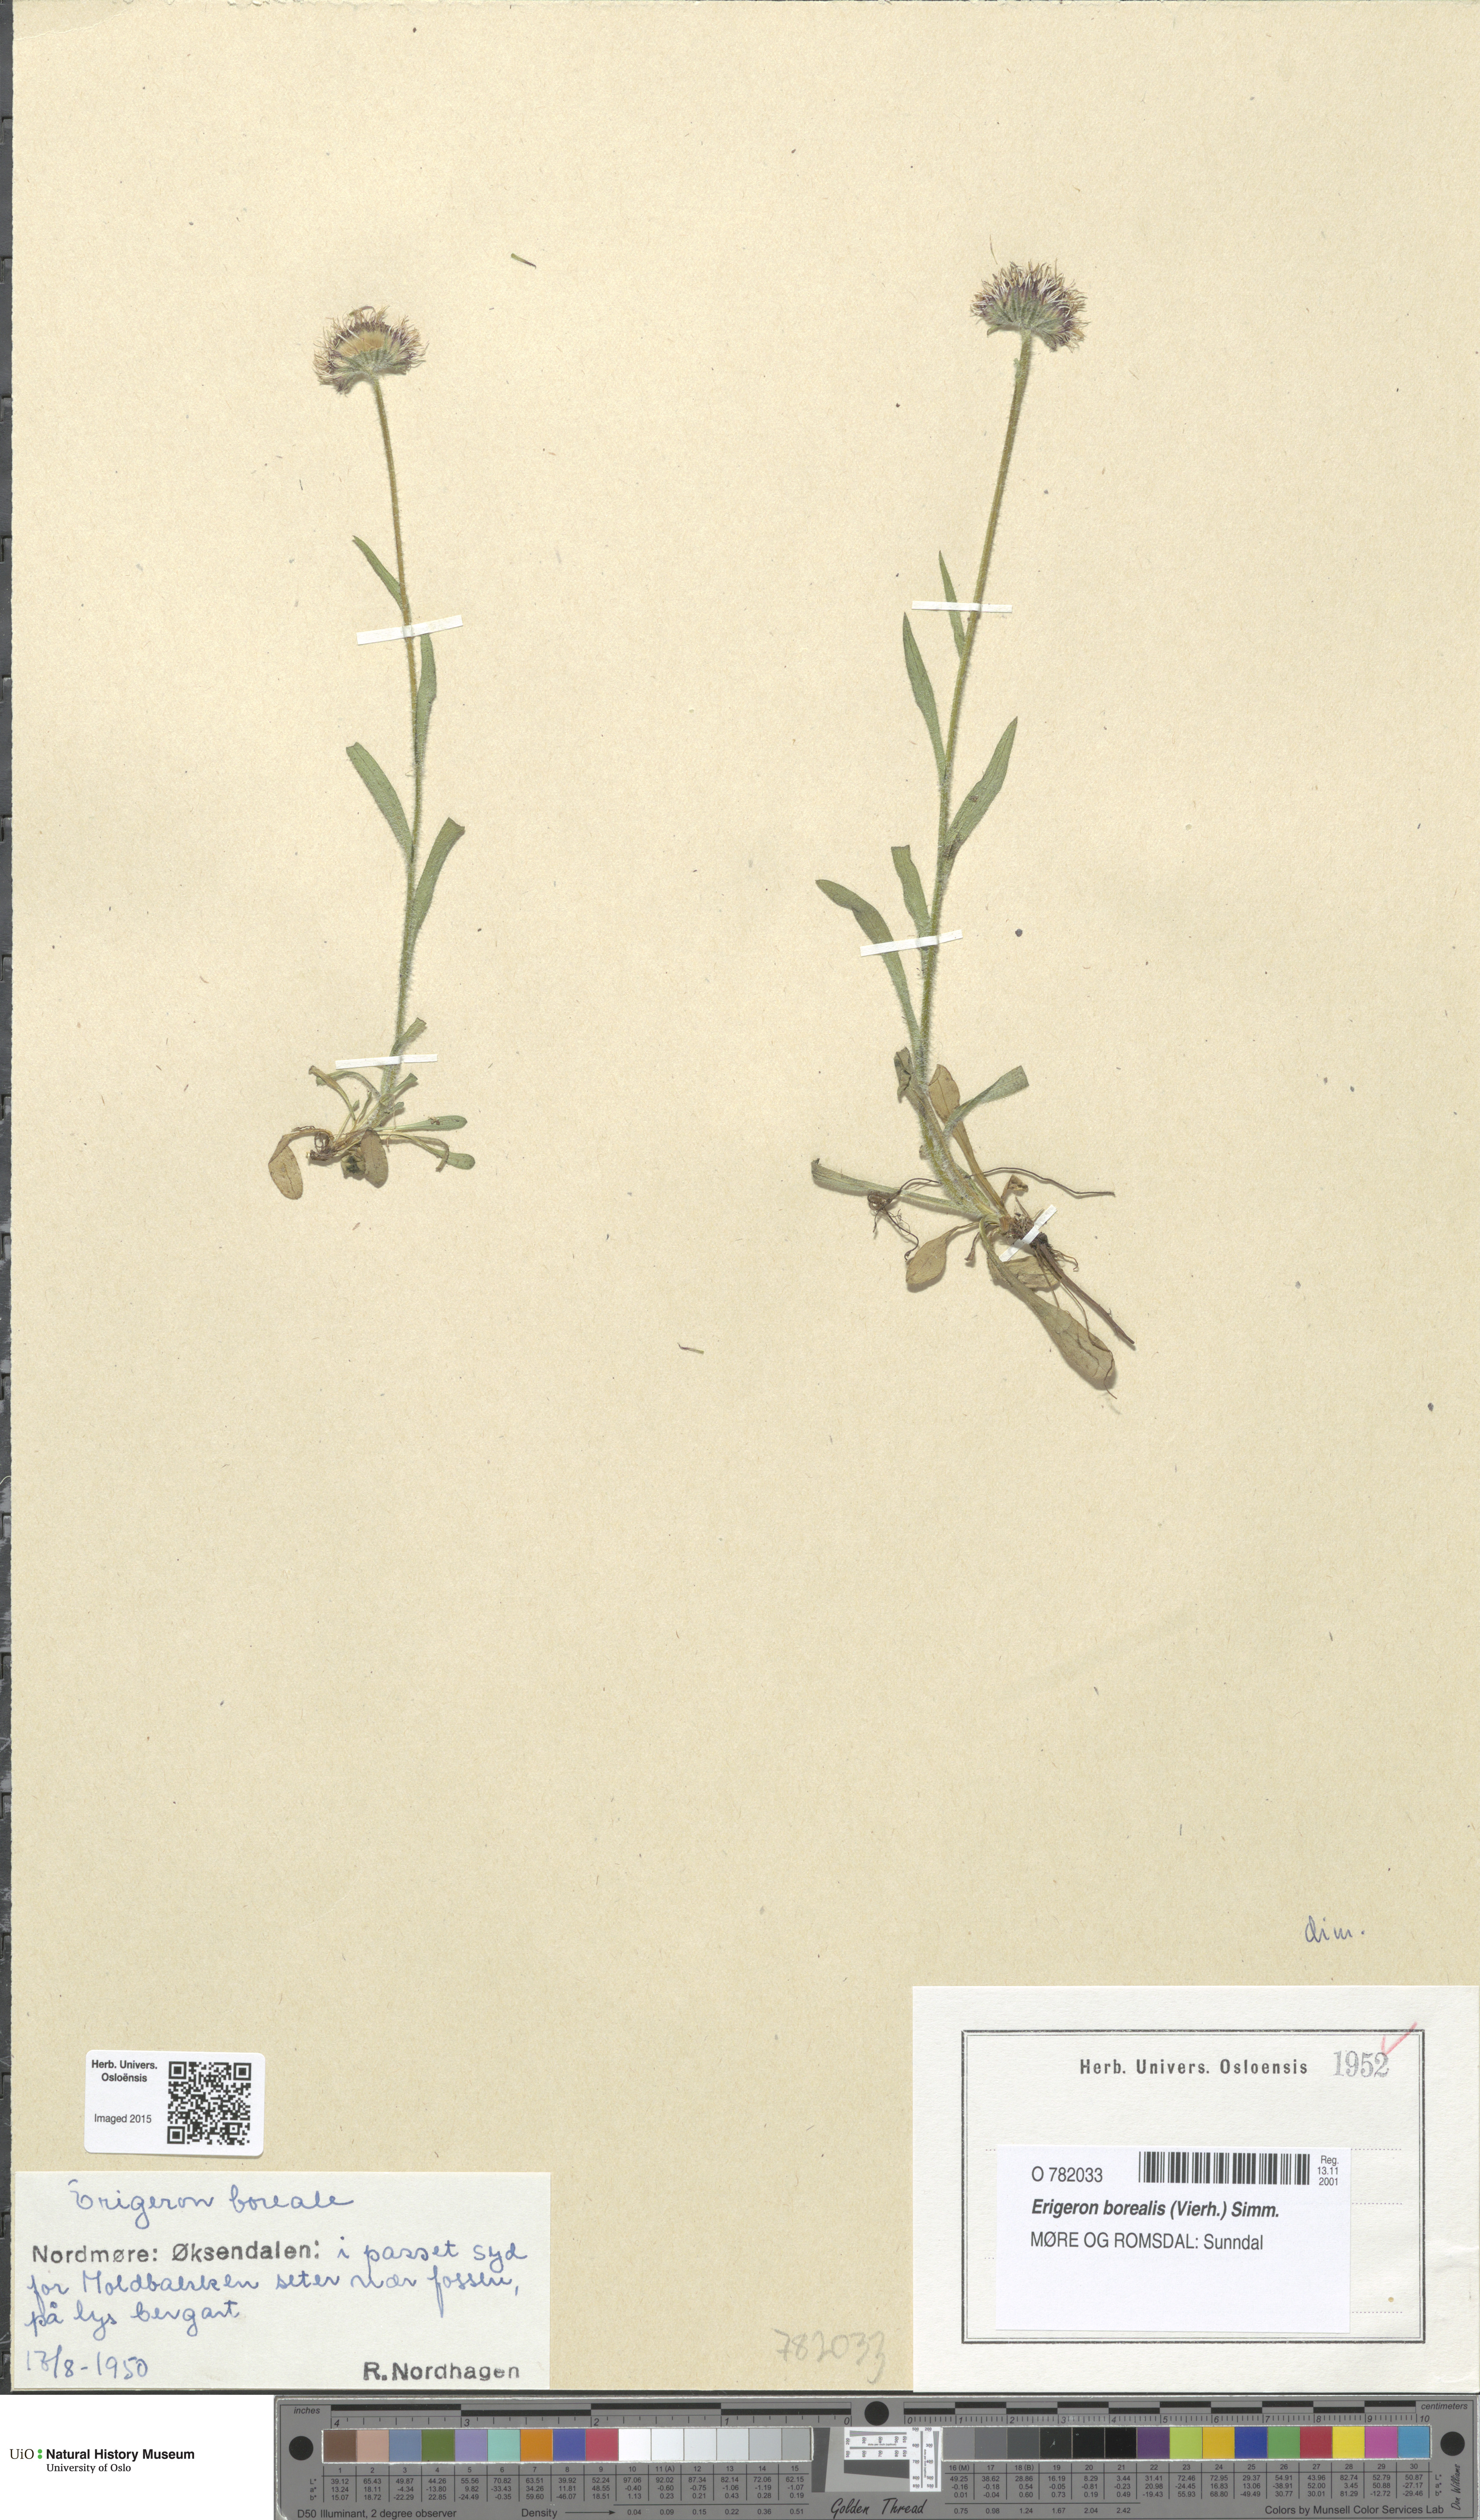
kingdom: Plantae
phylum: Tracheophyta
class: Magnoliopsida
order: Asterales
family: Asteraceae
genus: Erigeron
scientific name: Erigeron borealis
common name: Alpine fleabane
